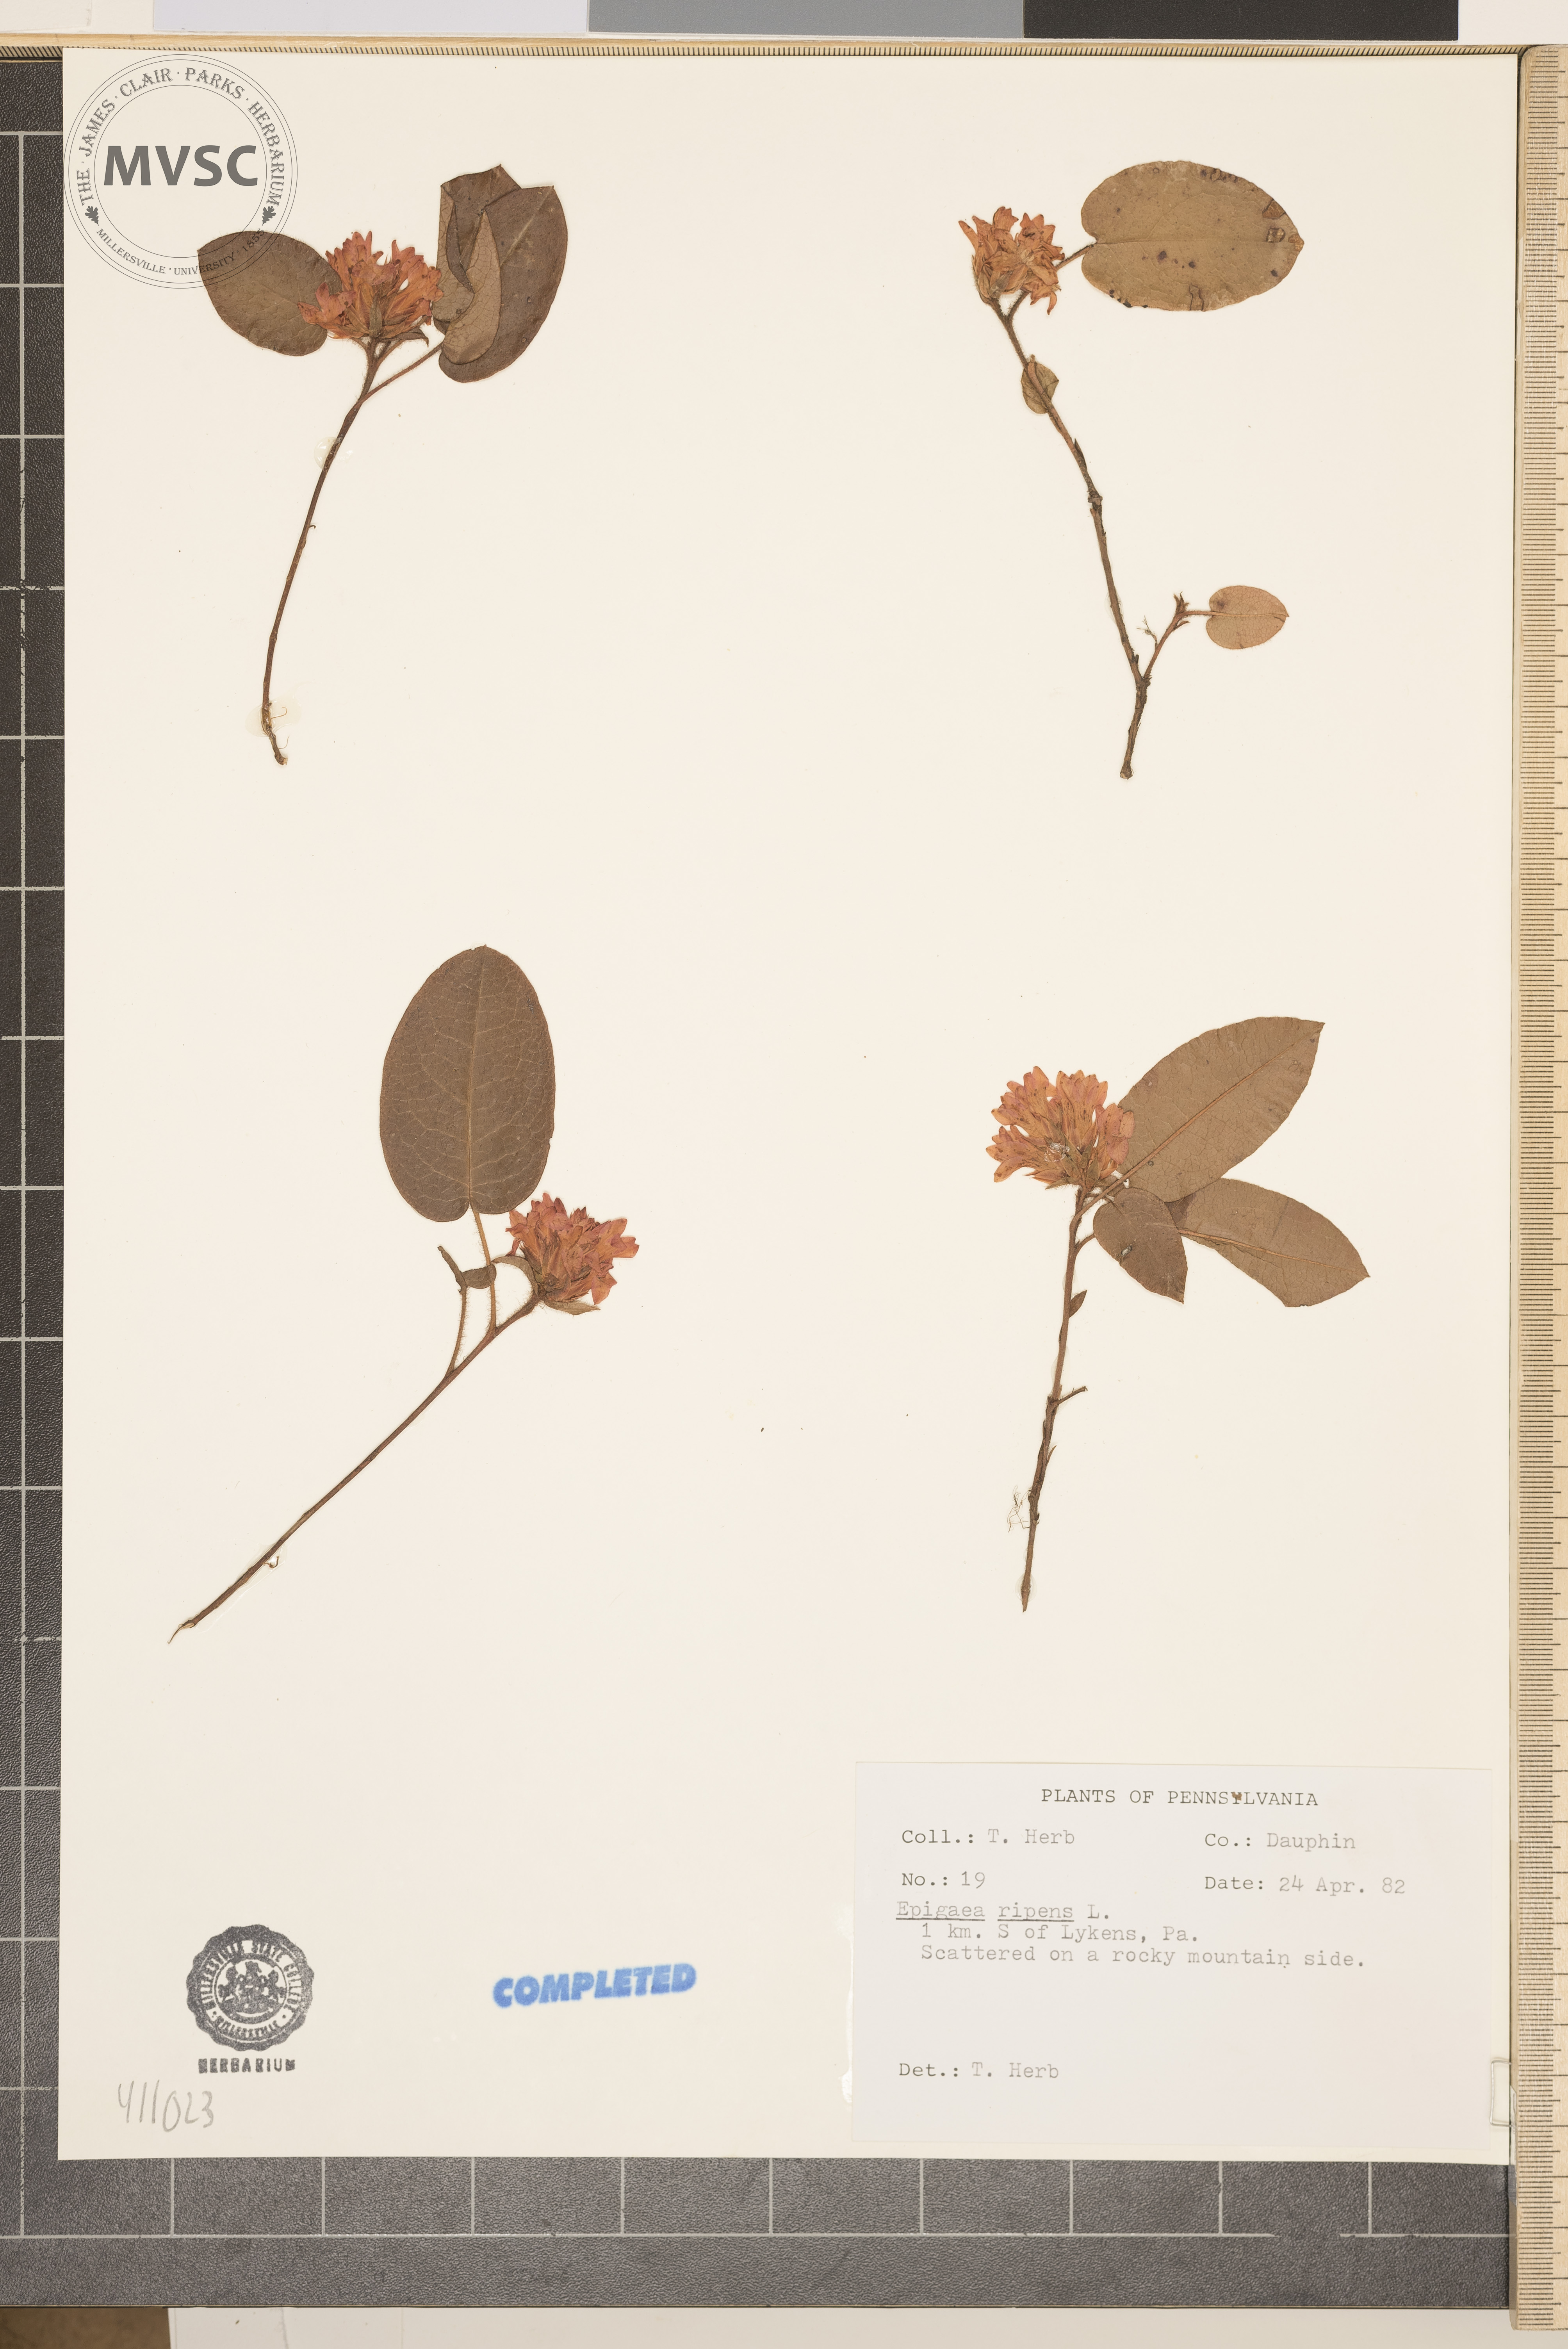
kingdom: Plantae
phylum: Tracheophyta
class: Magnoliopsida
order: Ericales
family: Ericaceae
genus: Epigaea
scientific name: Epigaea repens
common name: Gravelroot
